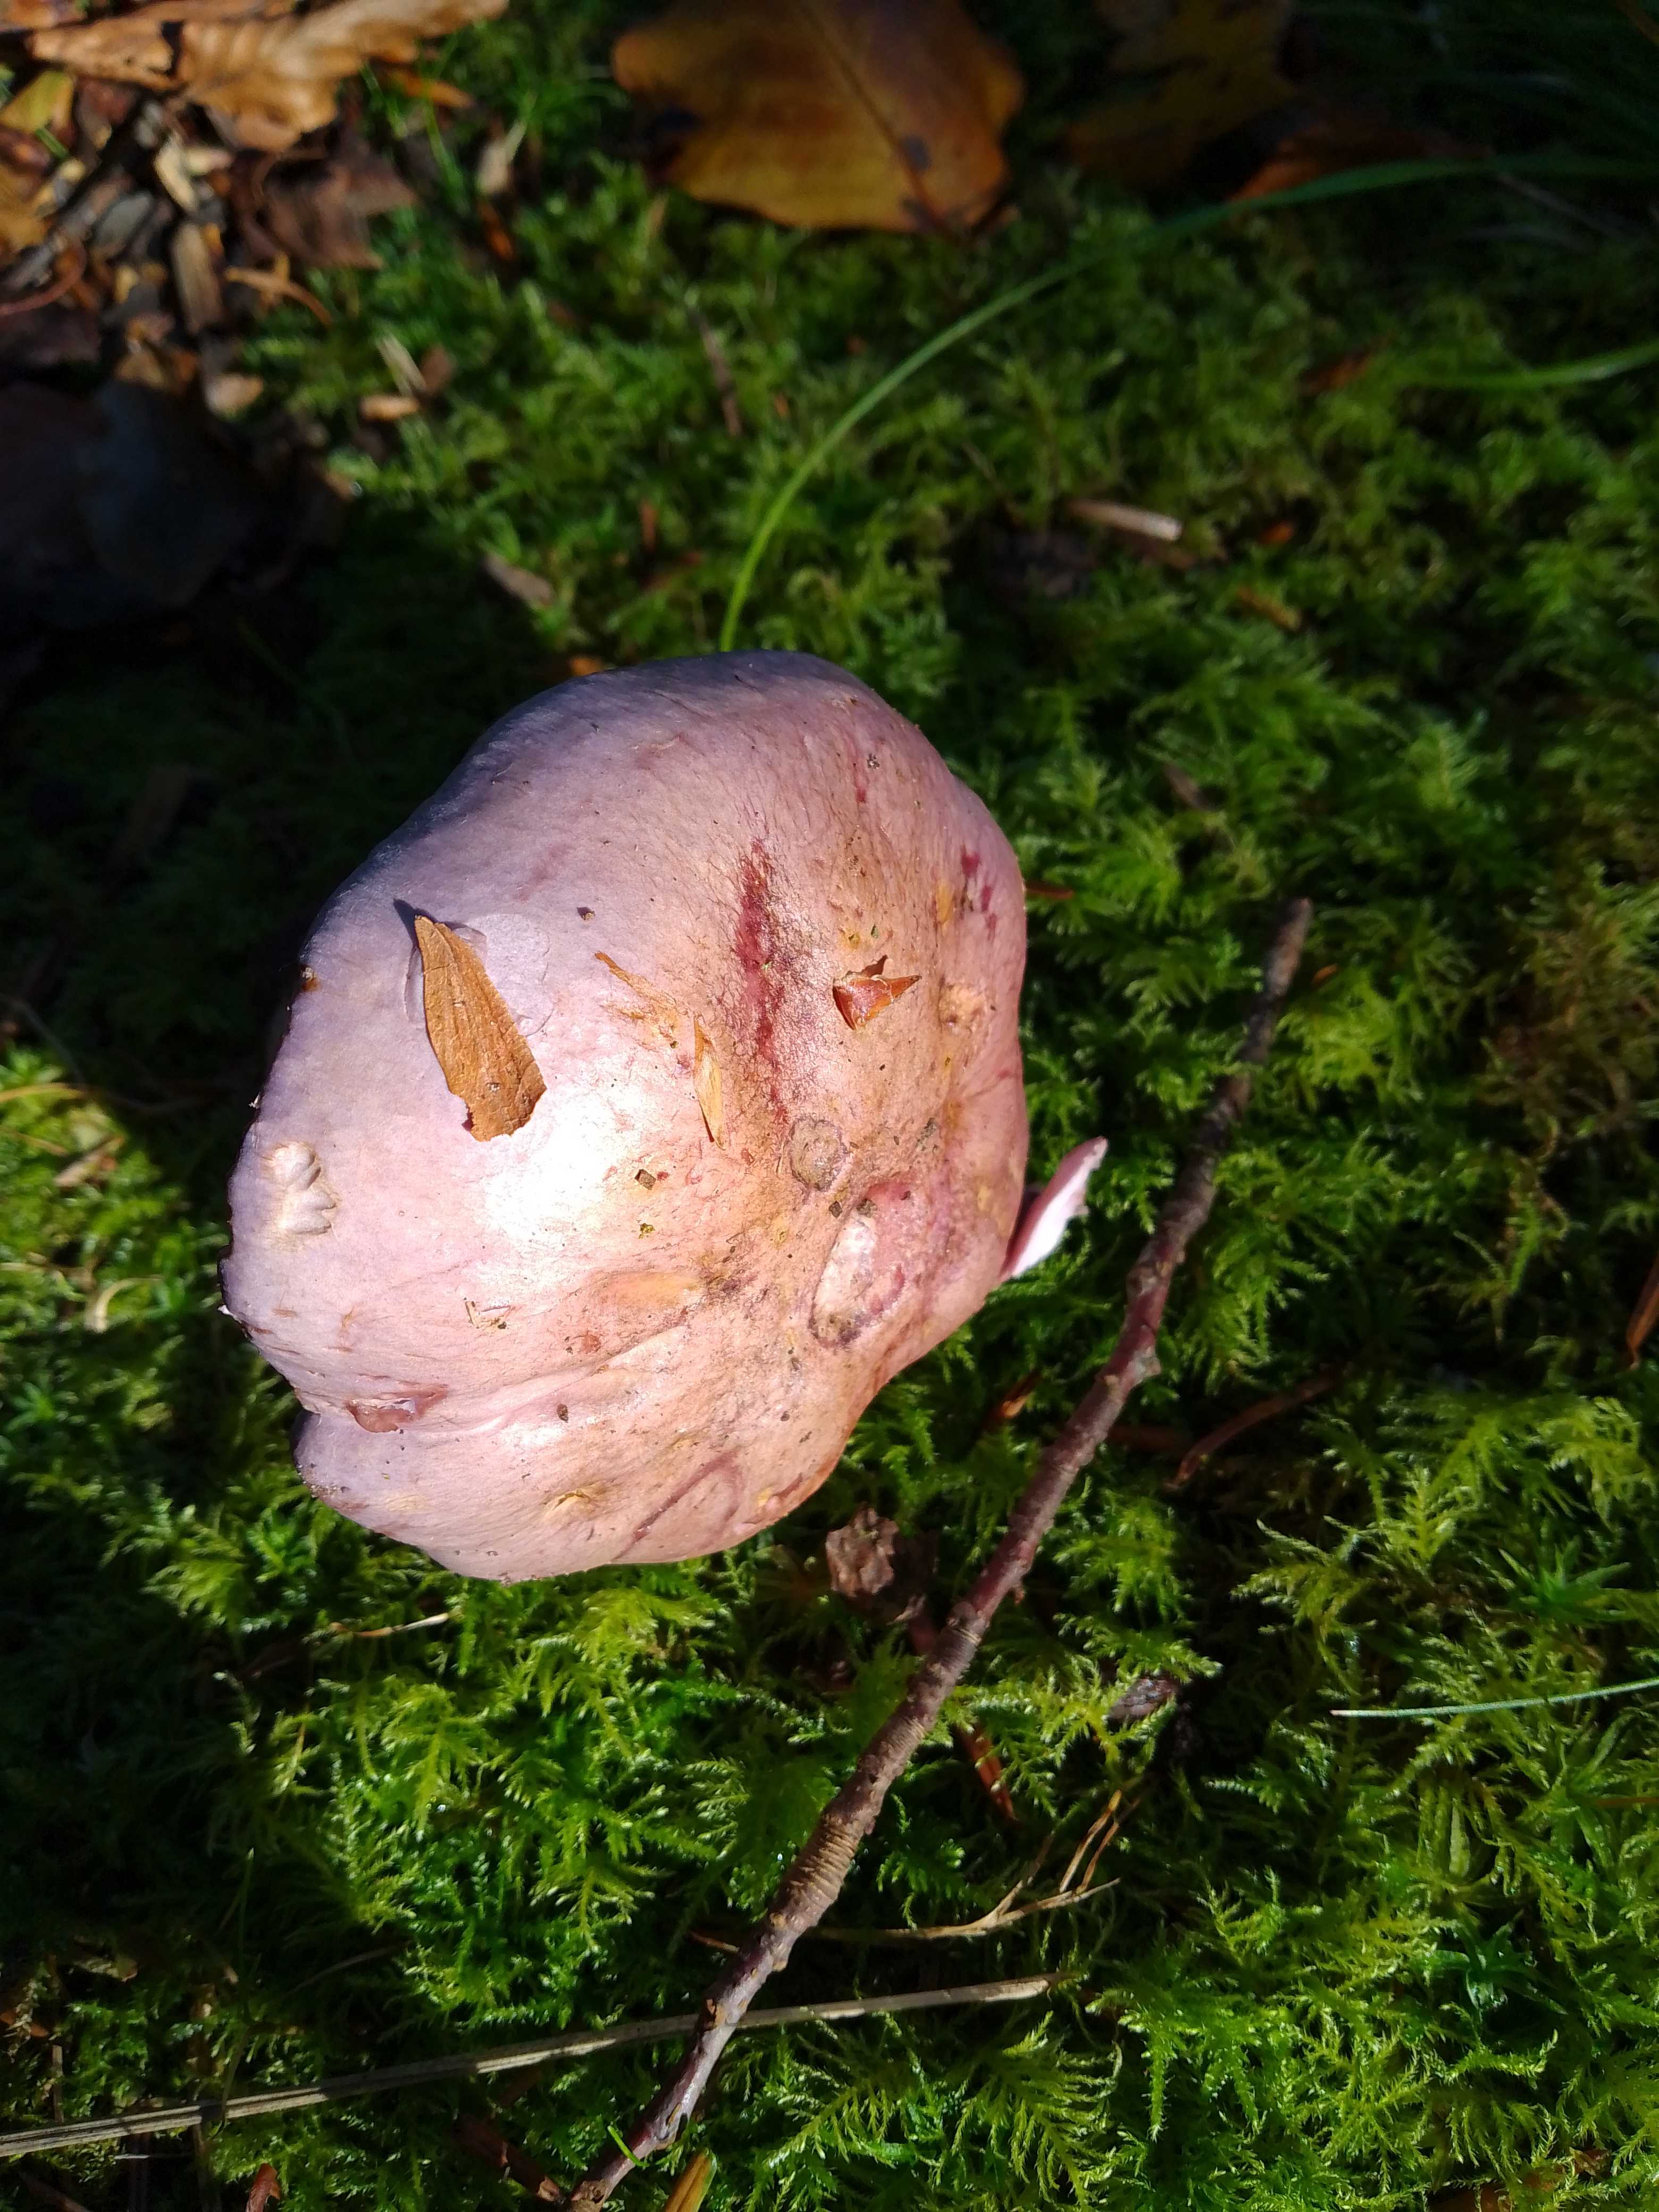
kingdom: Fungi
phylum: Basidiomycota
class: Agaricomycetes
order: Agaricales
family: Cortinariaceae
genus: Thaxterogaster
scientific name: Thaxterogaster
